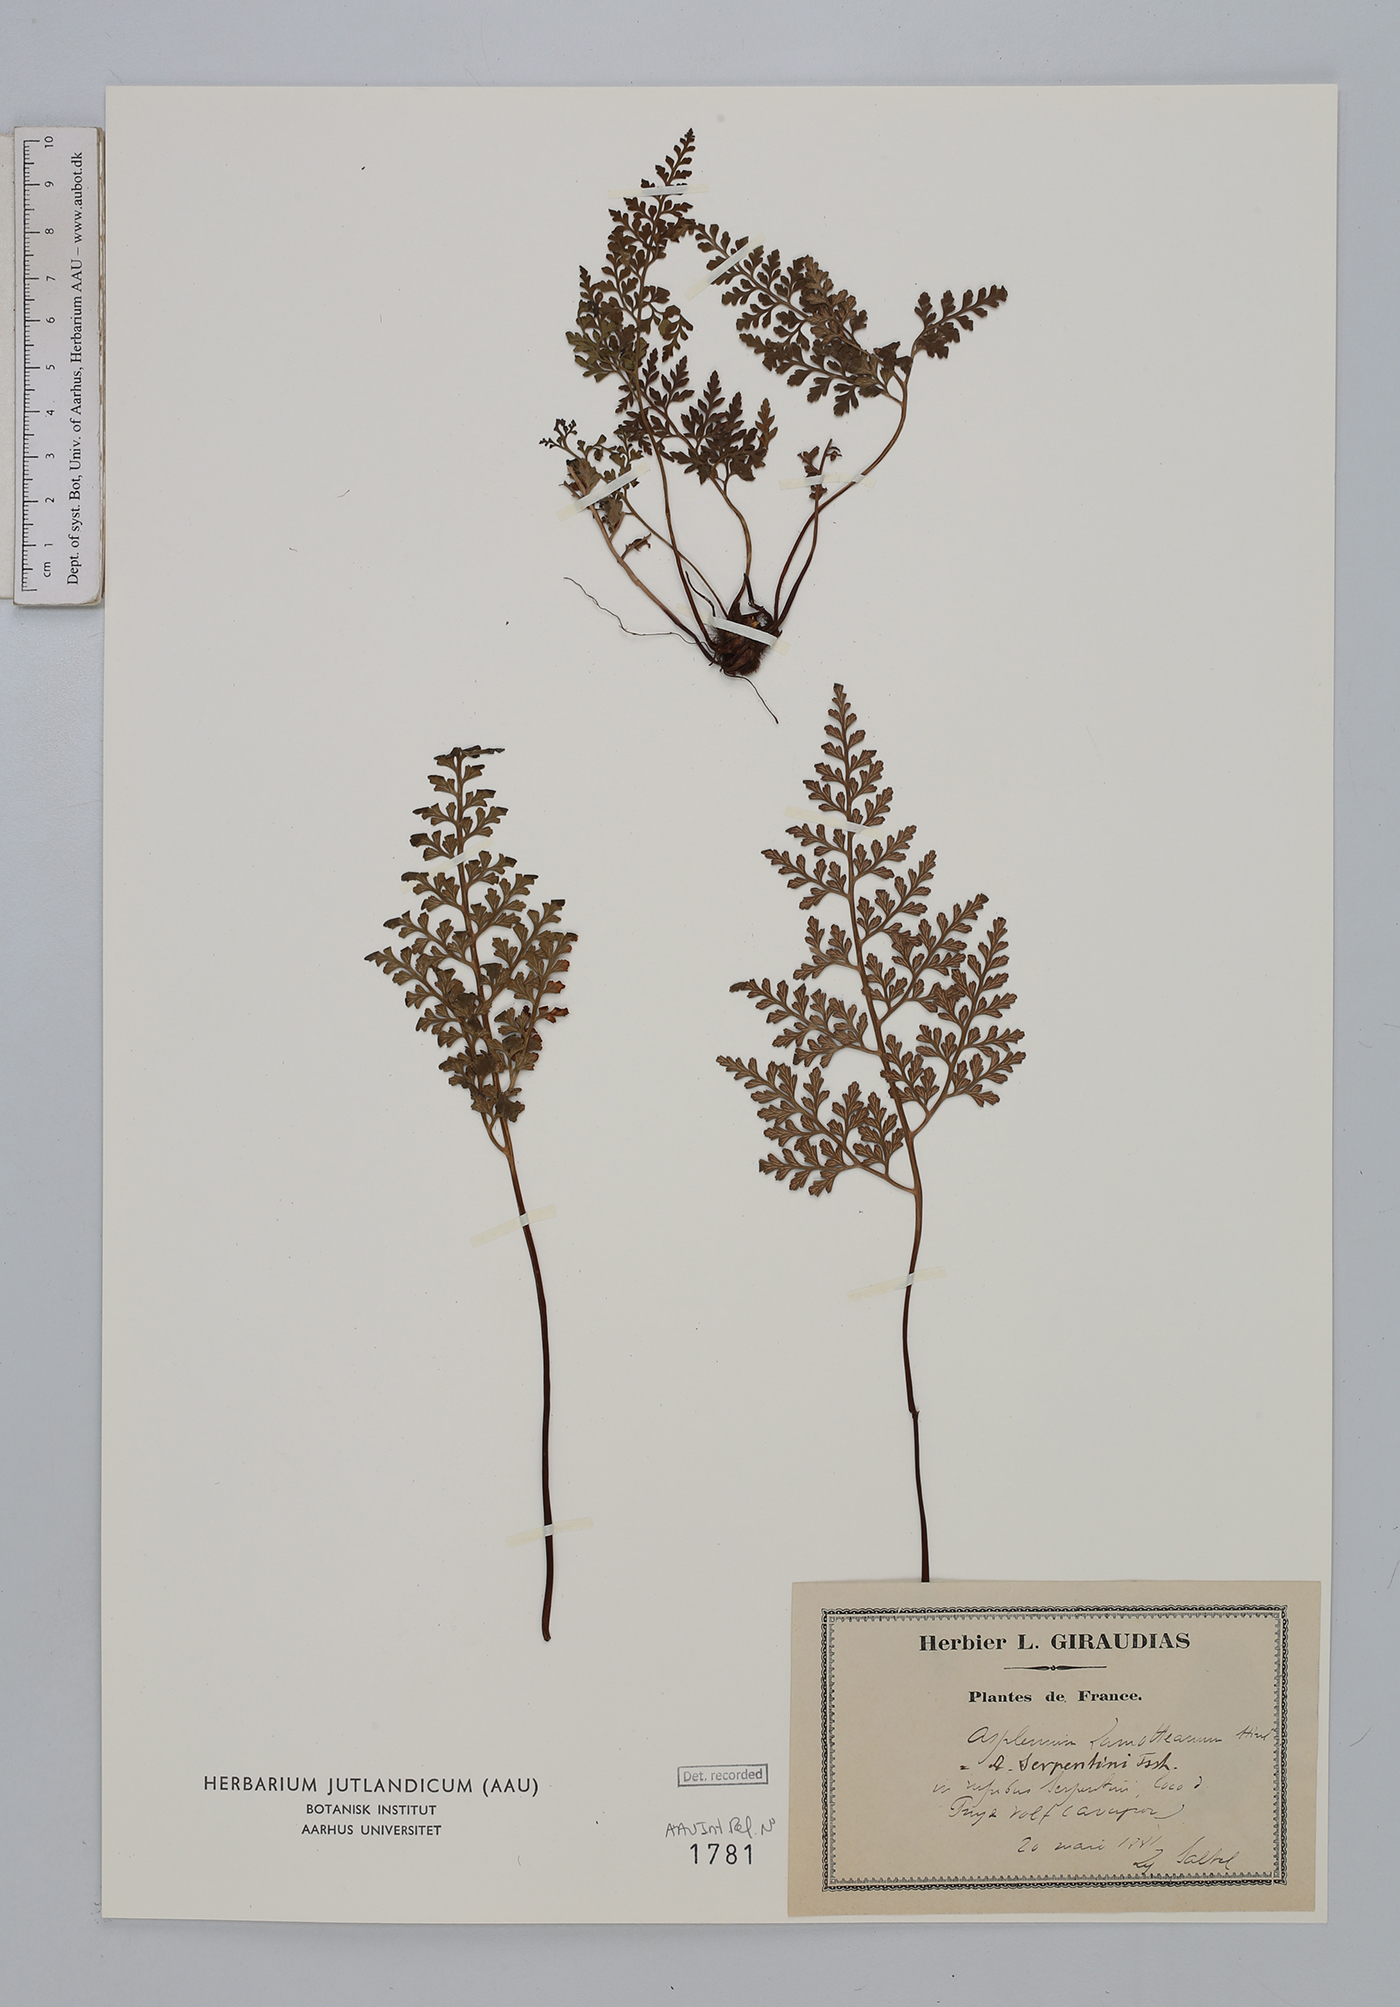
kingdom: Plantae
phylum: Tracheophyta
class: Polypodiopsida
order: Polypodiales
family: Aspleniaceae
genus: Asplenium
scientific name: Asplenium cuneifolium
